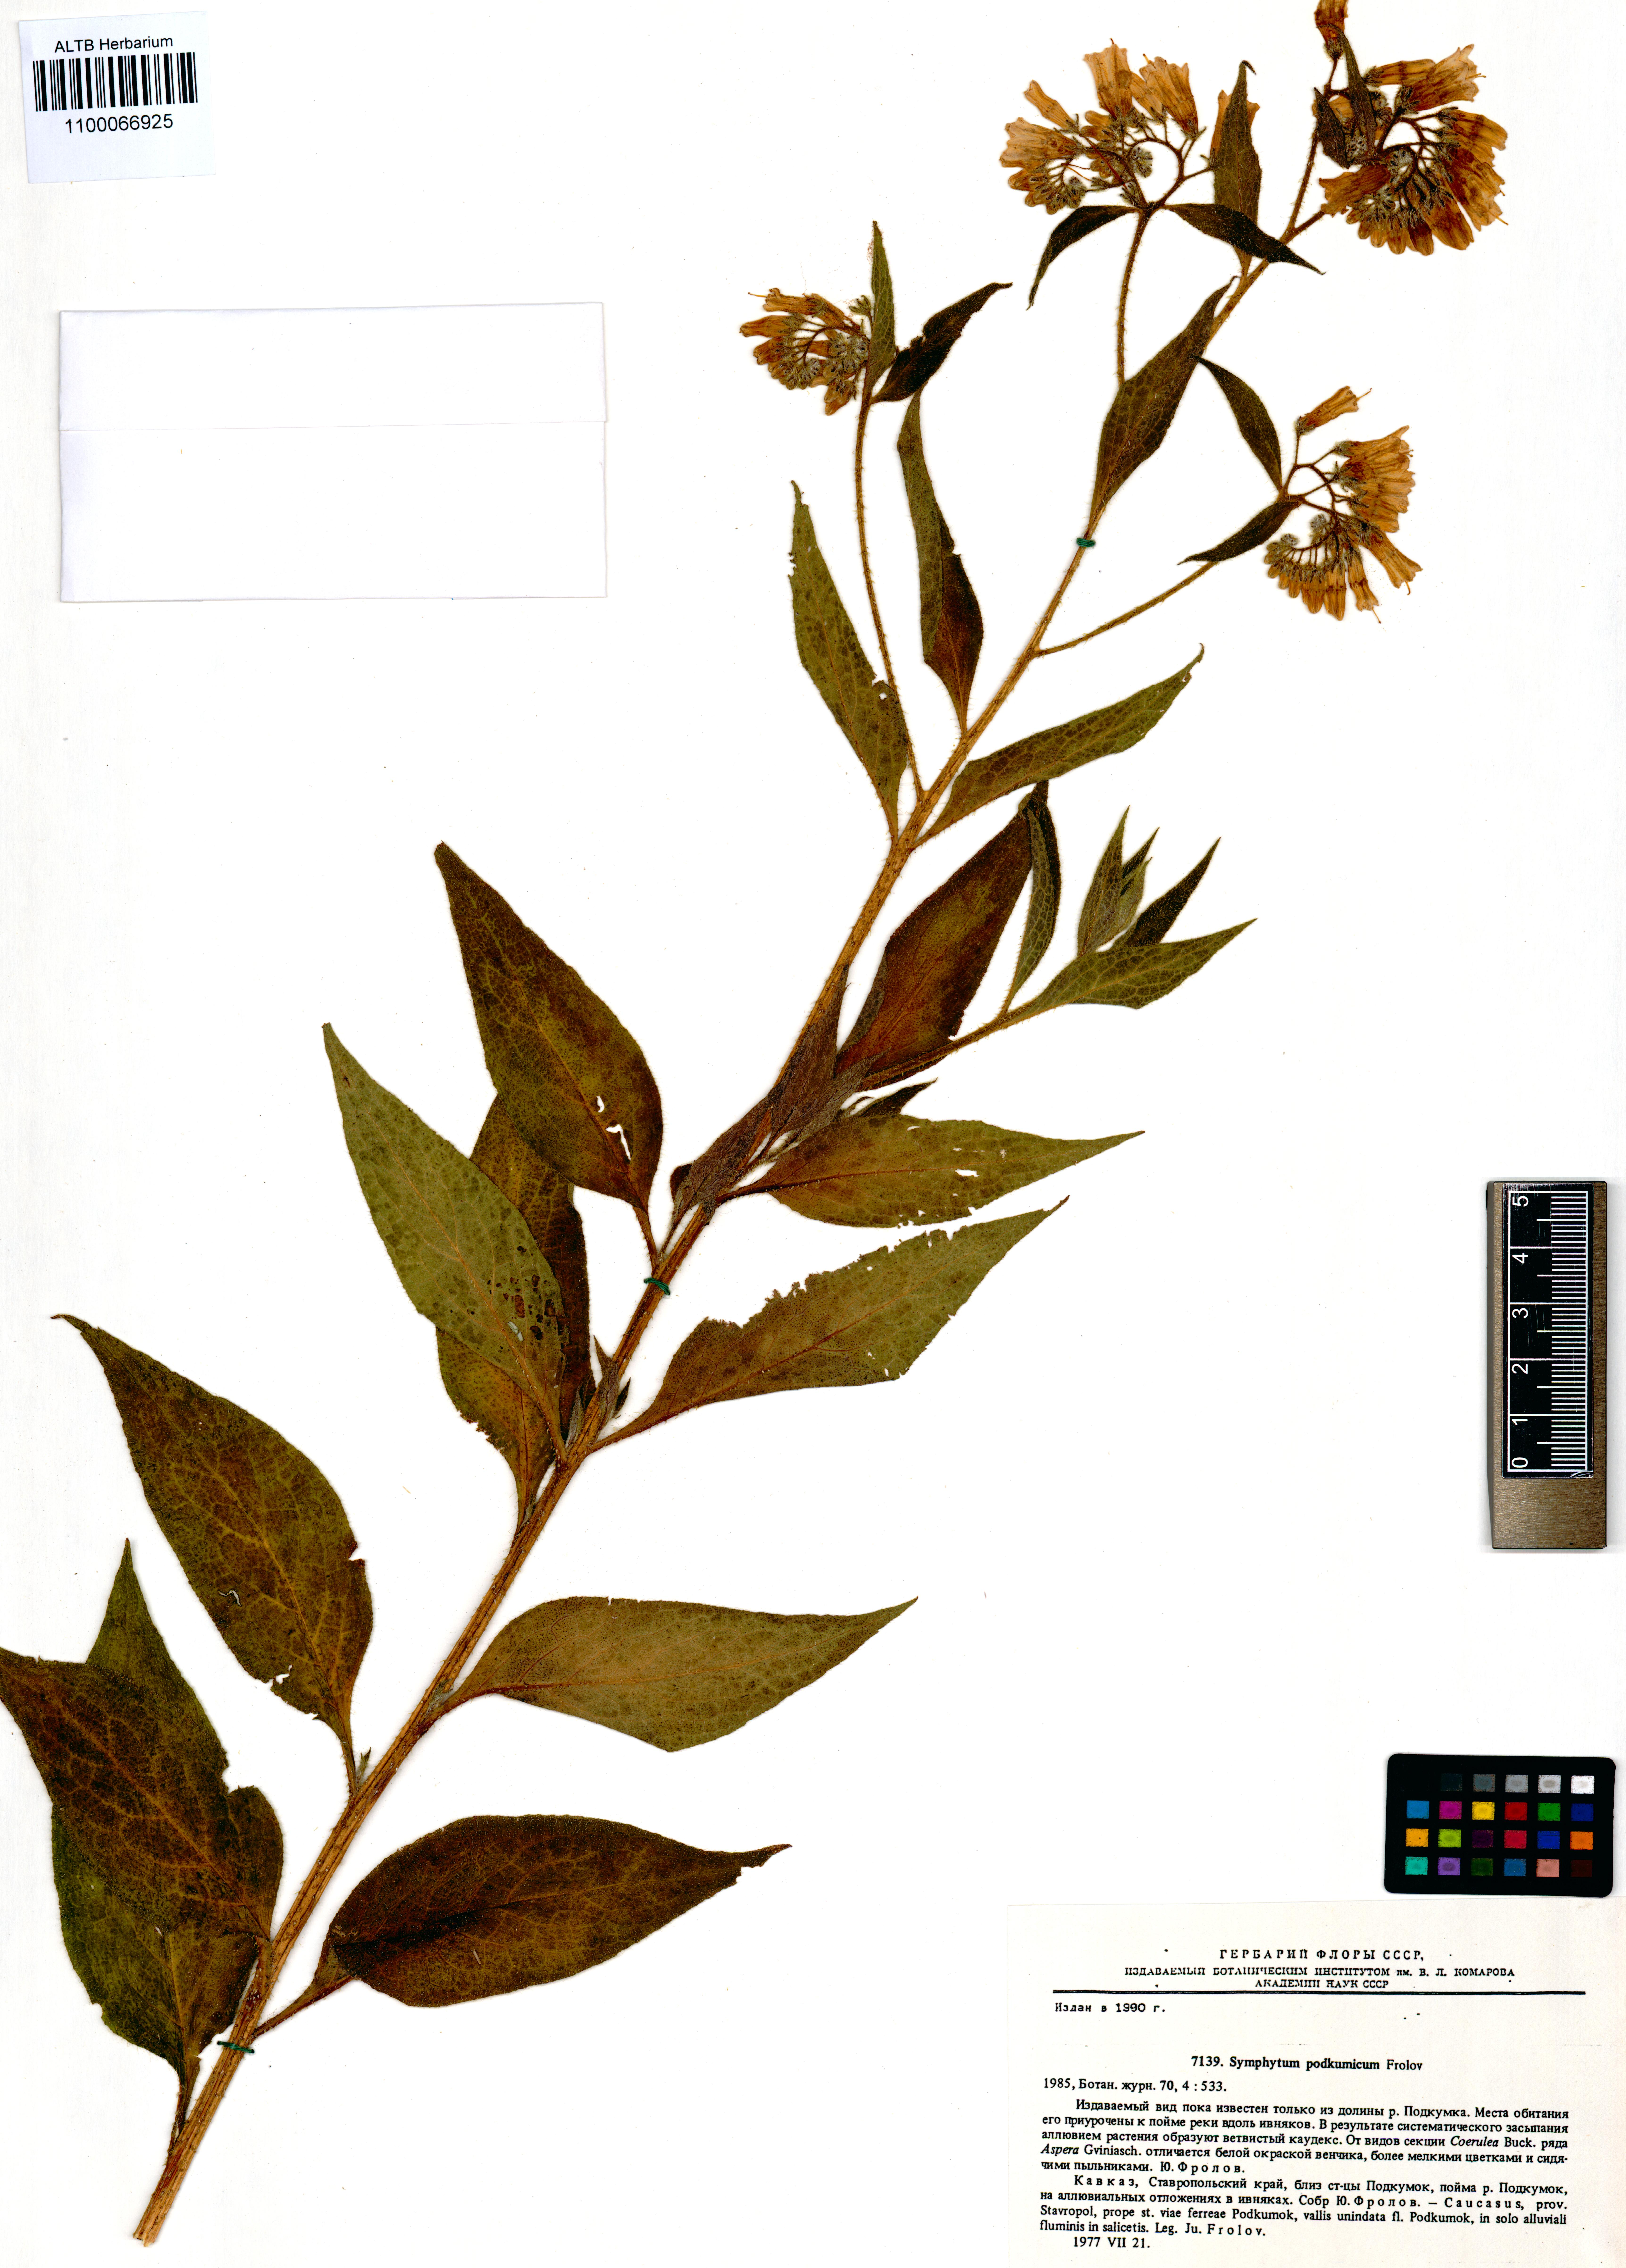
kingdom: Plantae
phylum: Tracheophyta
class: Magnoliopsida
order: Boraginales
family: Boraginaceae
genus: Symphytum
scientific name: Symphytum podcumicum
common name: Podkumian comfrey
